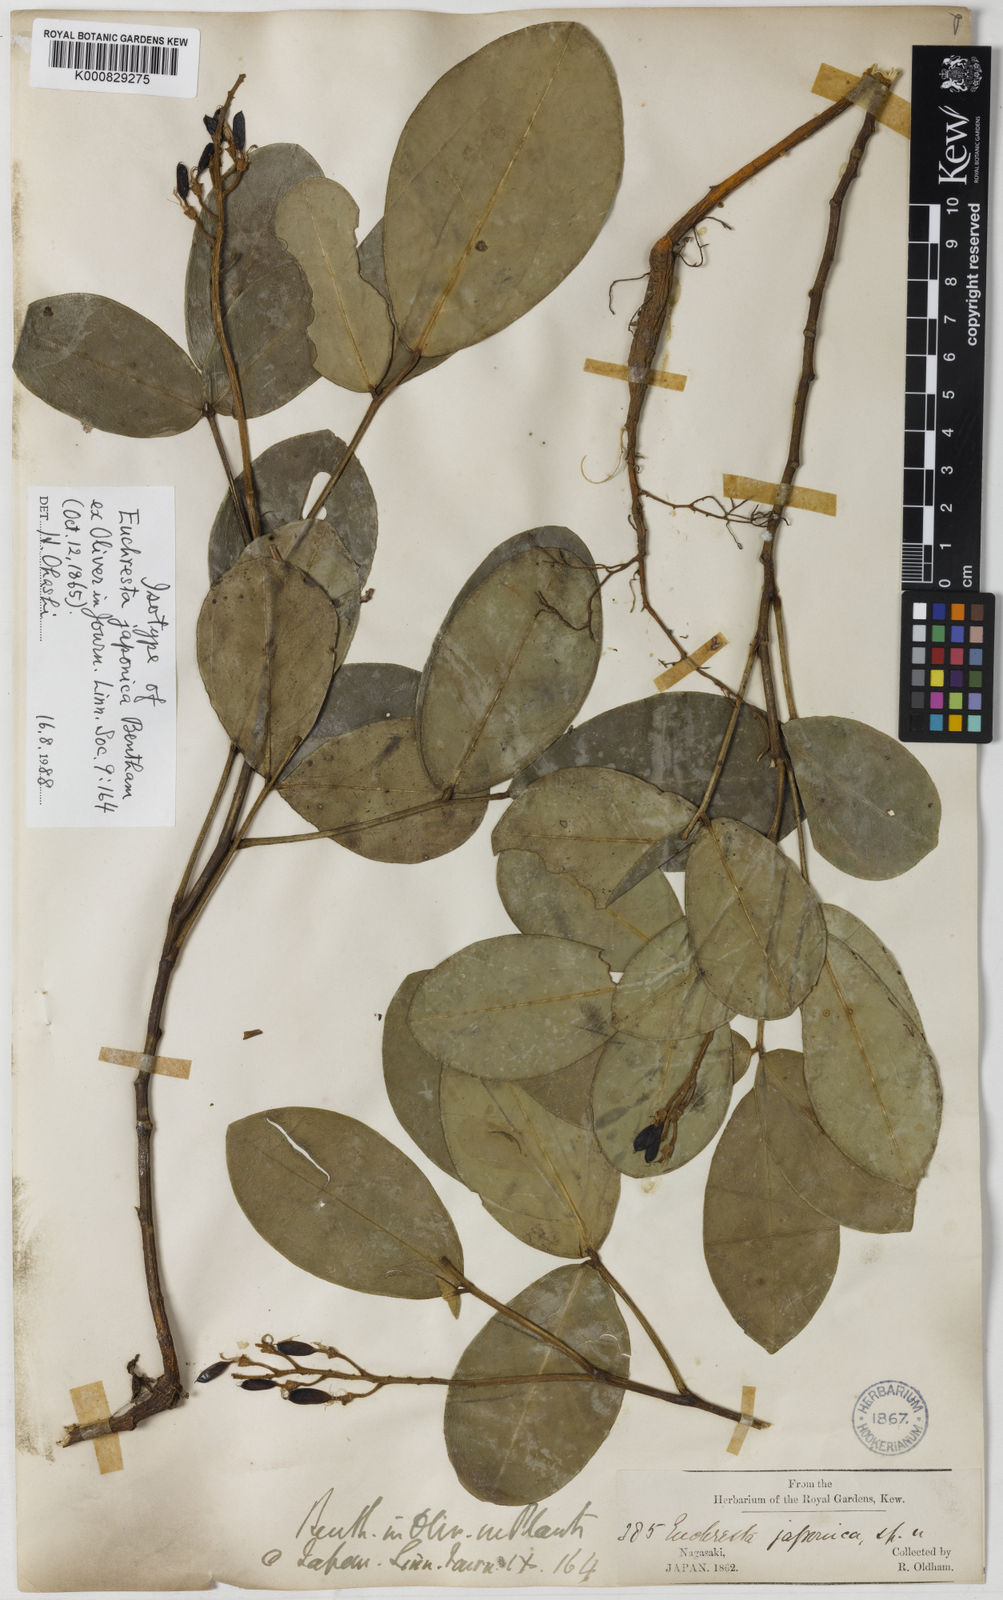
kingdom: Plantae
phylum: Tracheophyta
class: Magnoliopsida
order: Fabales
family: Fabaceae
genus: Euchresta
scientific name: Euchresta
